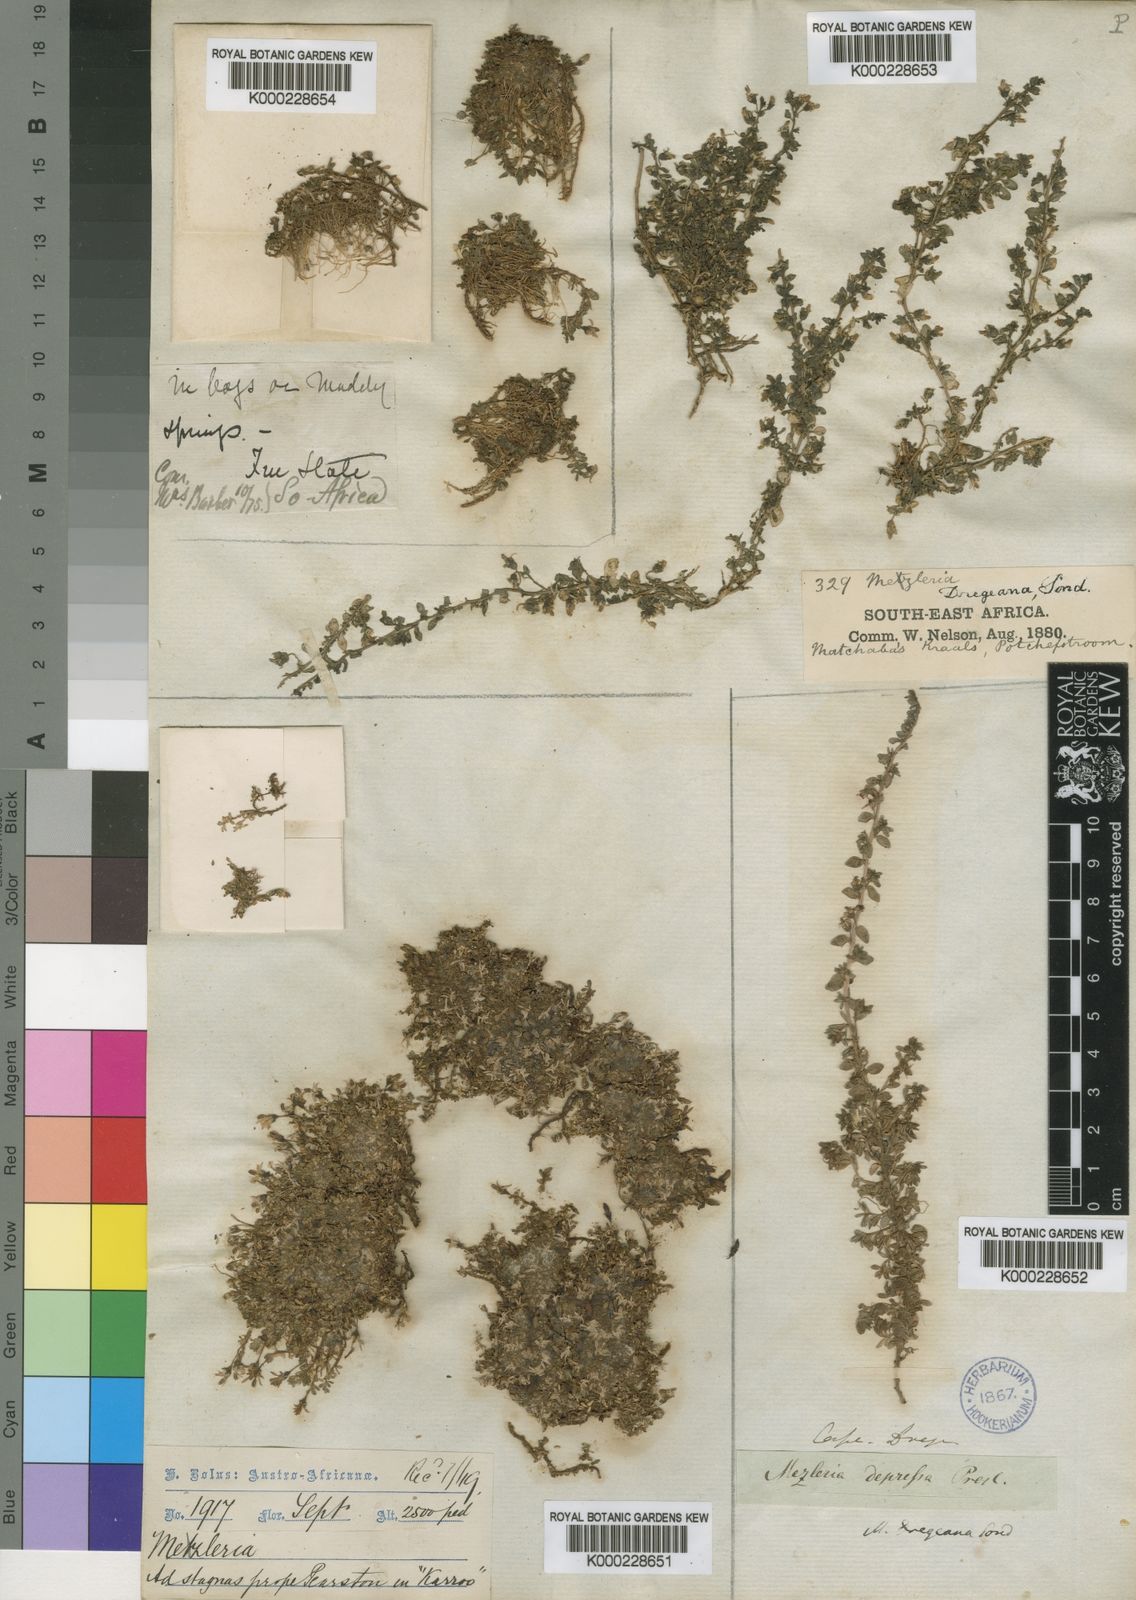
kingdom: Plantae
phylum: Tracheophyta
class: Magnoliopsida
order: Asterales
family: Campanulaceae
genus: Lobelia
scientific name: Lobelia dregeana
